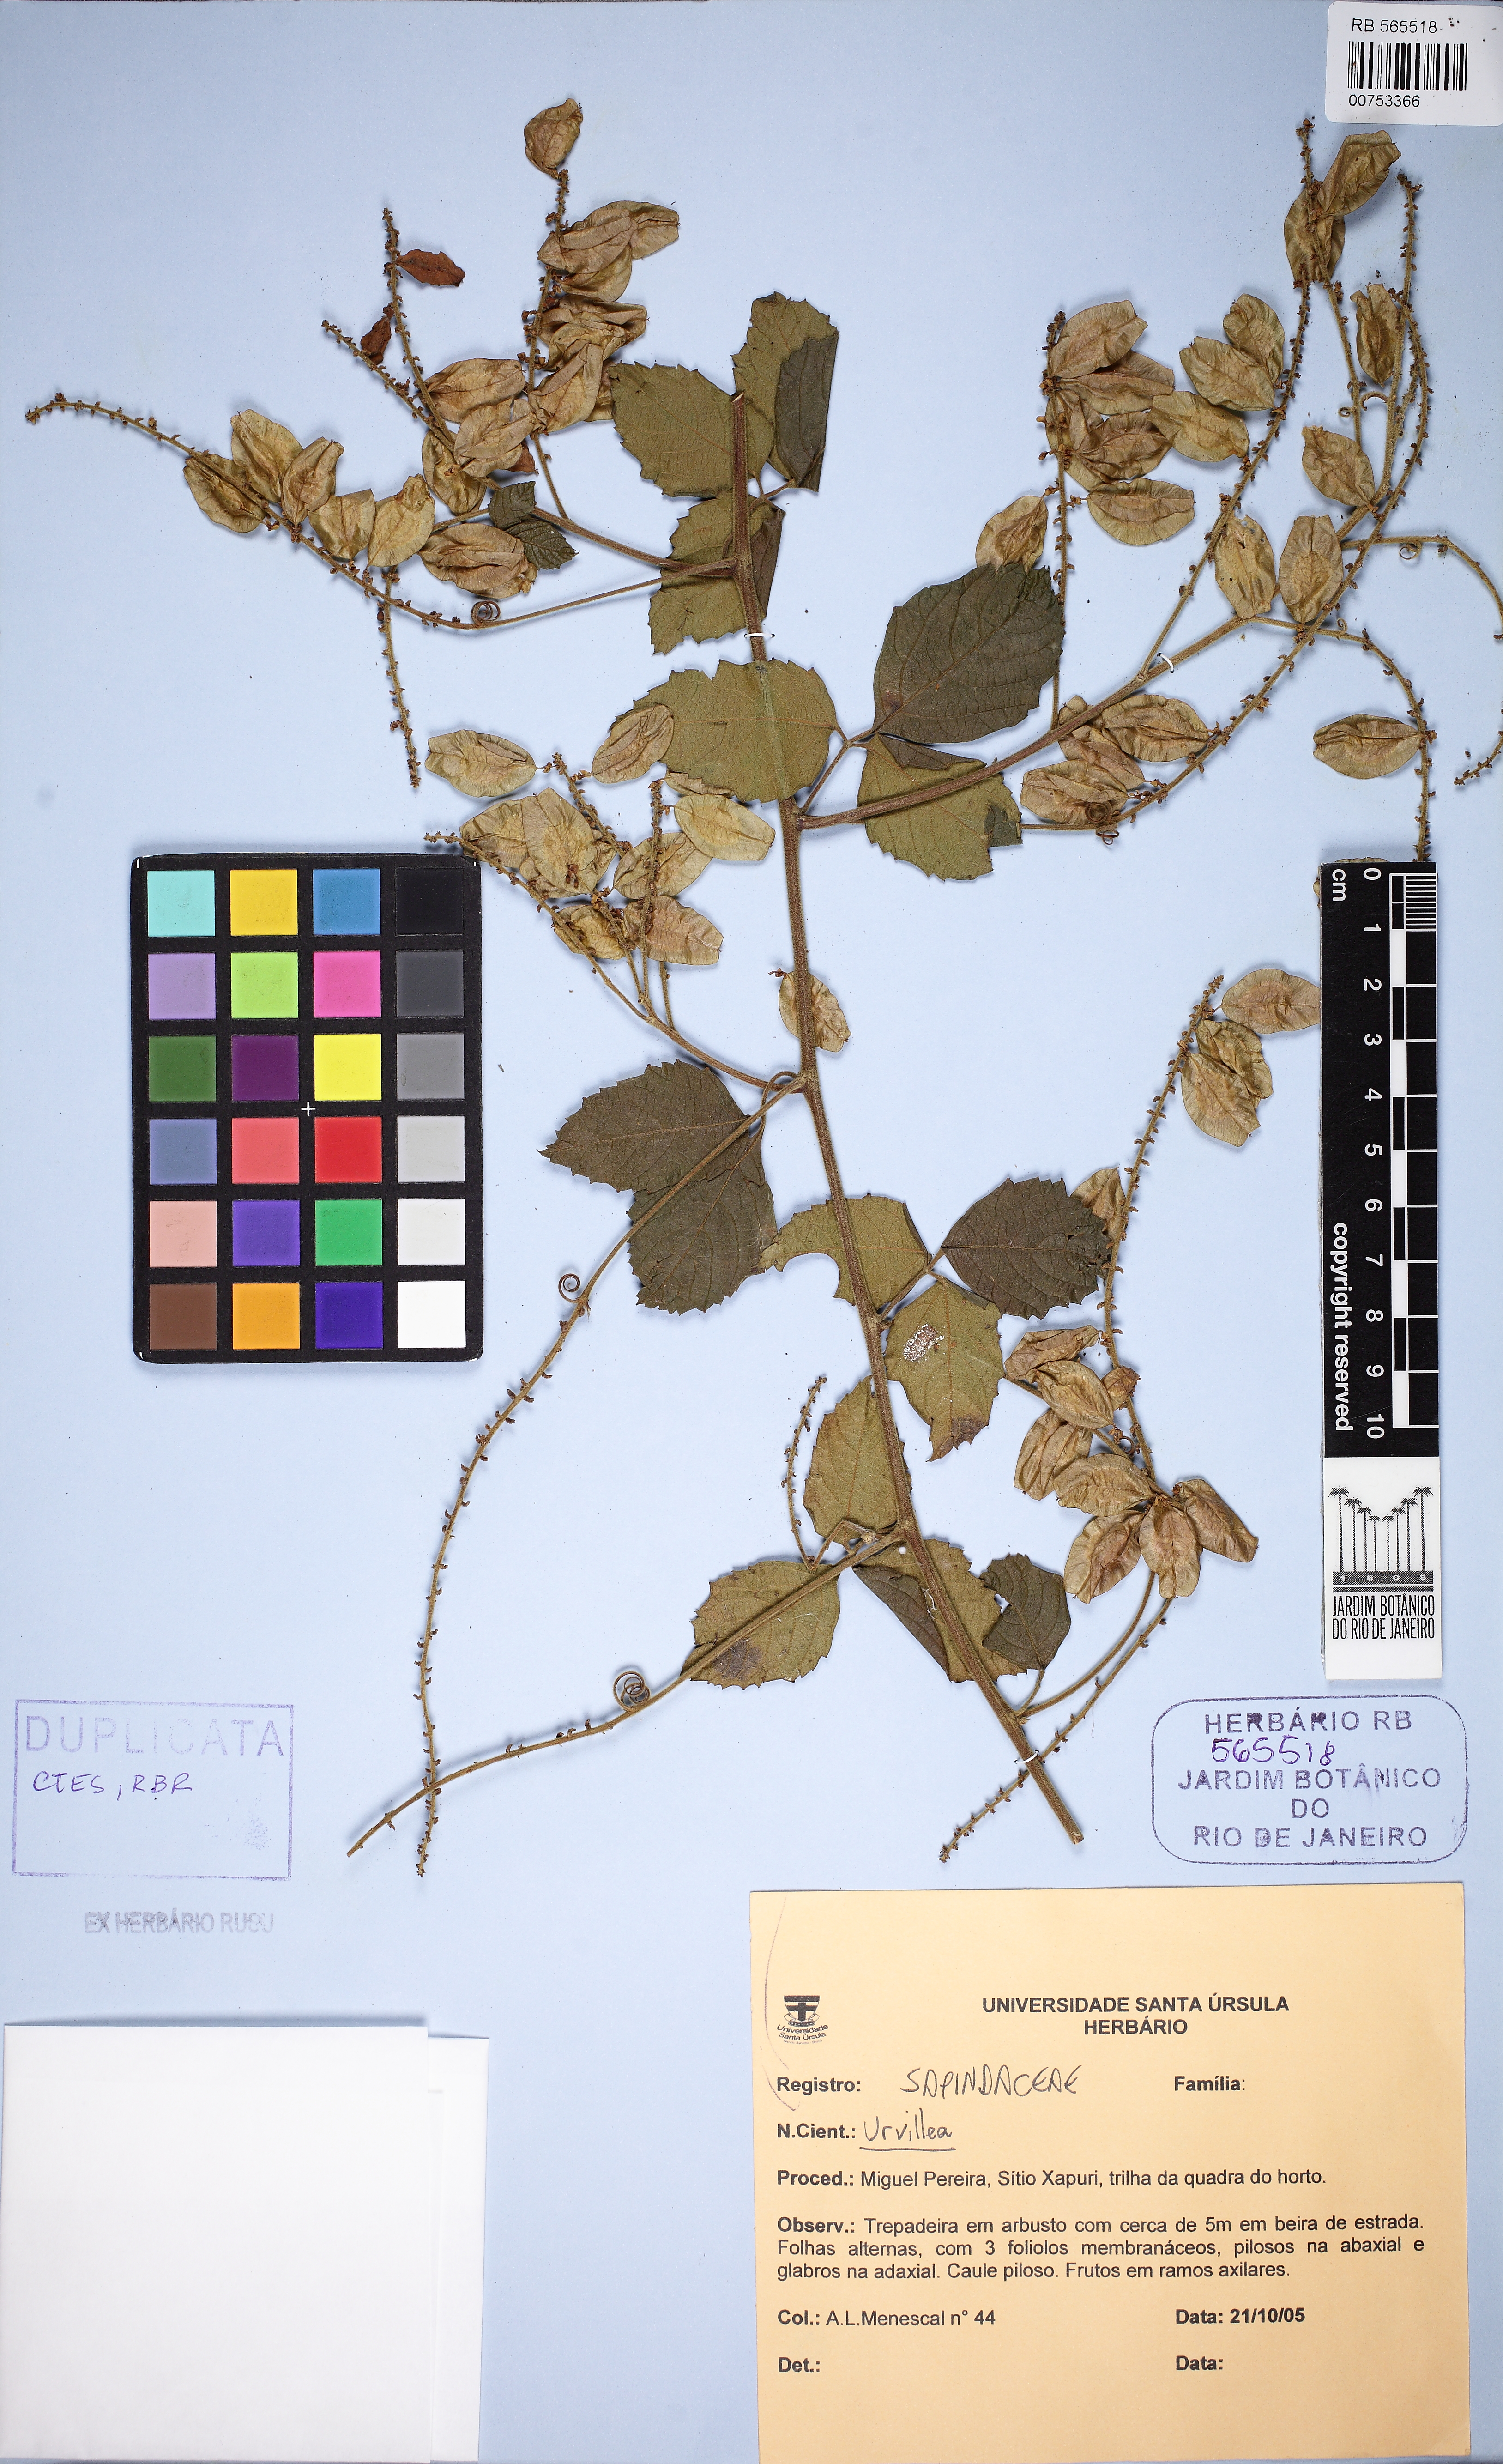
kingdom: Plantae
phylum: Tracheophyta
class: Magnoliopsida
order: Sapindales
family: Sapindaceae
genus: Urvillea
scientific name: Urvillea
